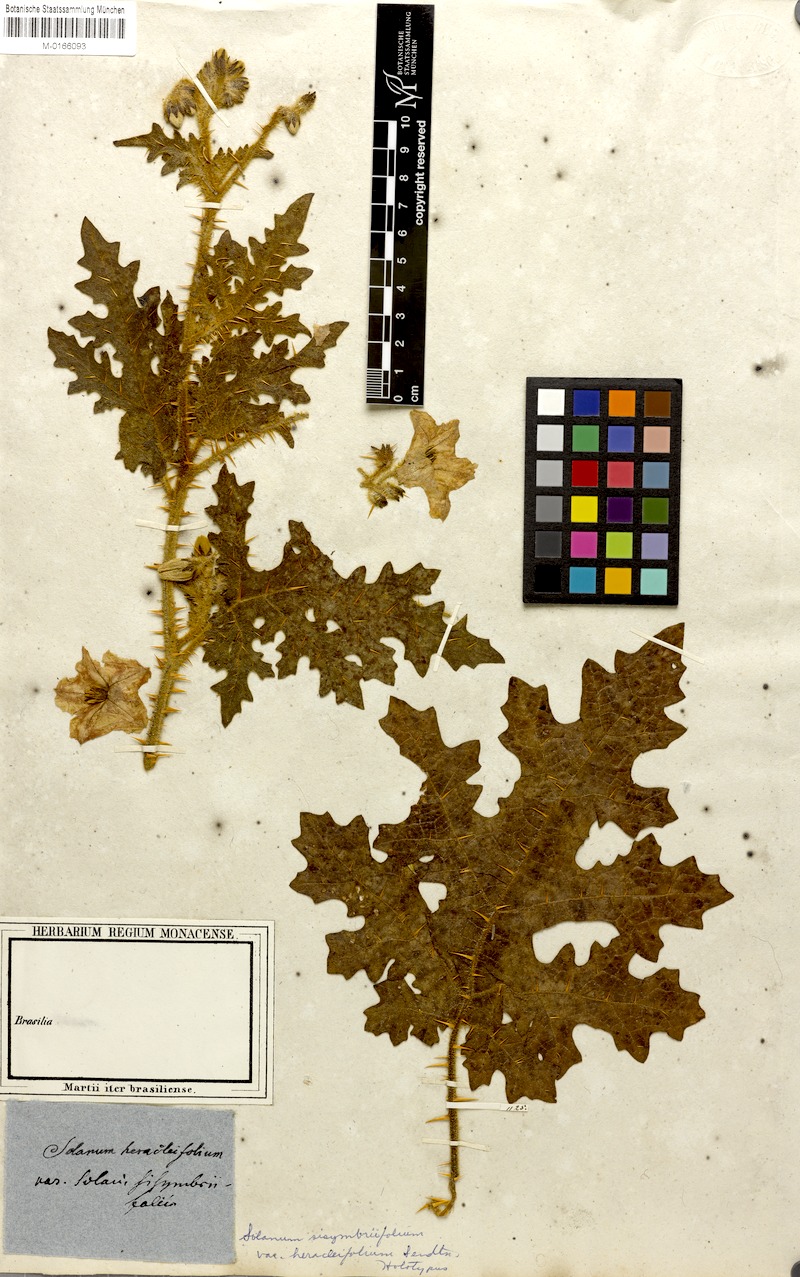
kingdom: Plantae
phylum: Tracheophyta
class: Magnoliopsida
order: Solanales
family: Solanaceae
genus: Solanum
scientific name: Solanum sisymbriifolium
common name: Red buffalo-bur
